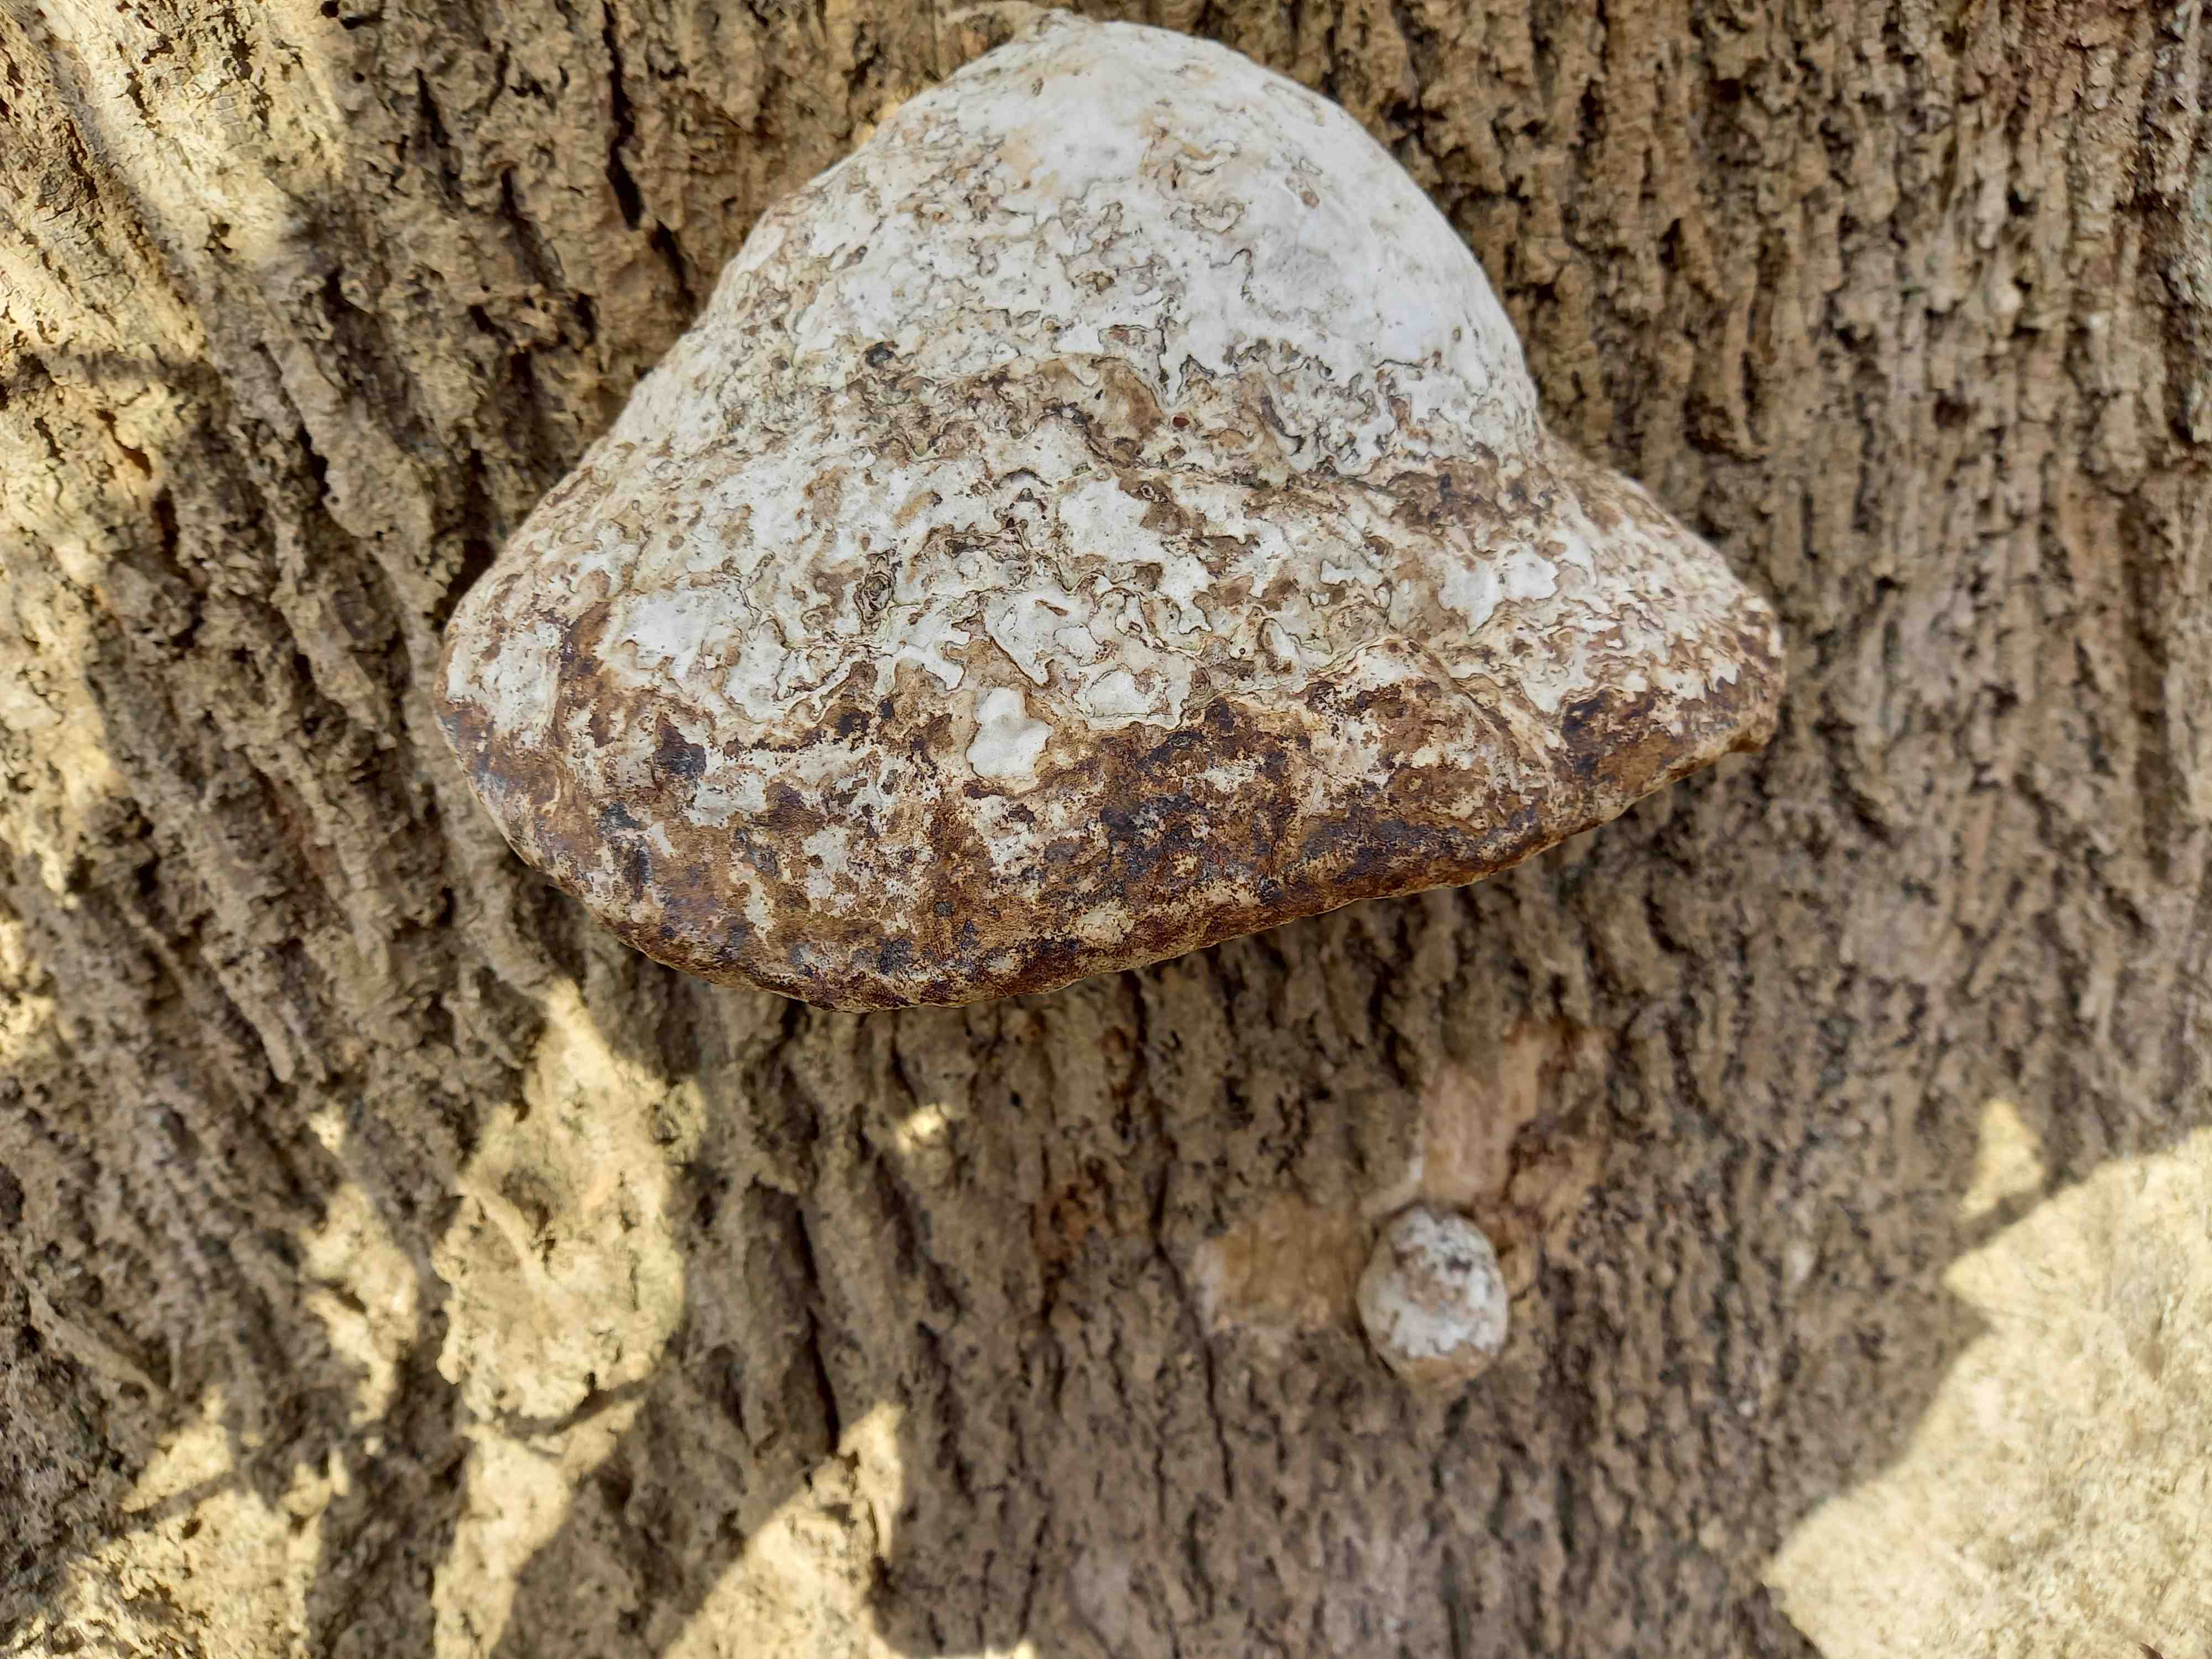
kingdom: Fungi
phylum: Basidiomycota
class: Agaricomycetes
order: Polyporales
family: Polyporaceae
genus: Fomes
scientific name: Fomes fomentarius
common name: tøndersvamp
